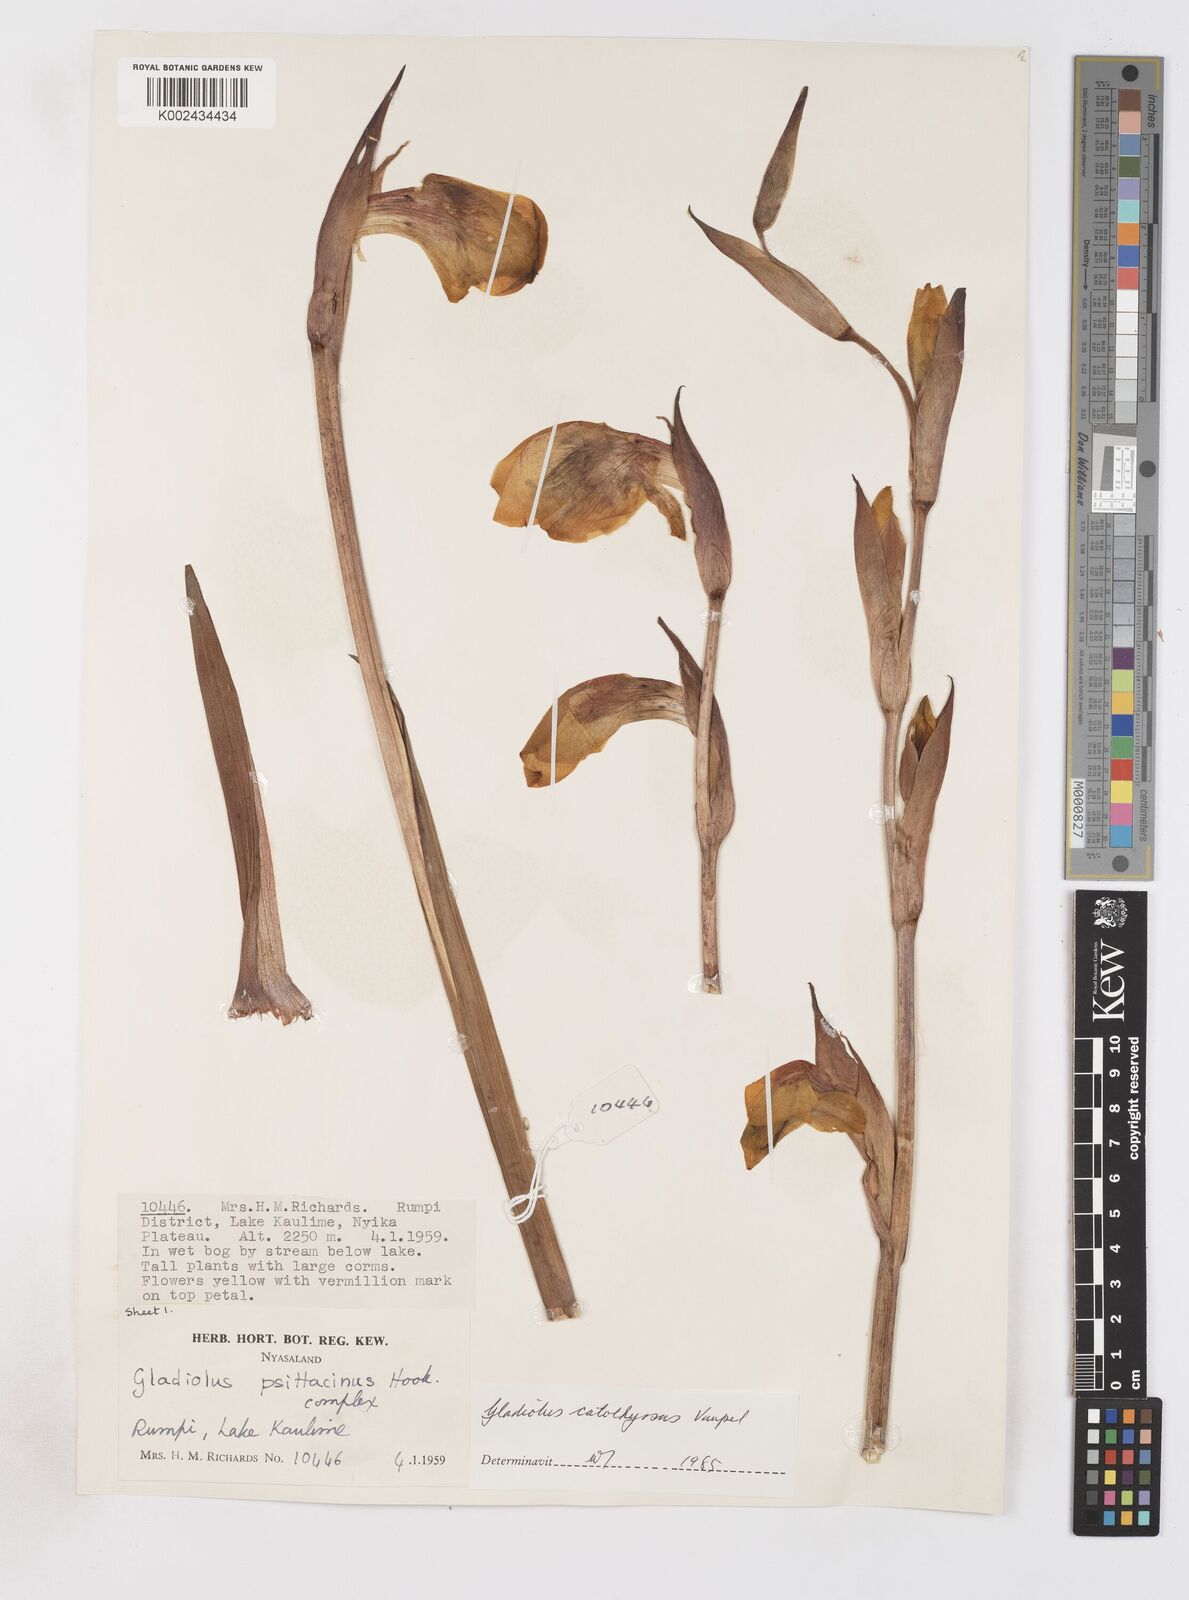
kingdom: Plantae
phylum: Tracheophyta
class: Liliopsida
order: Asparagales
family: Iridaceae
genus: Gladiolus
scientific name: Gladiolus dalenii
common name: Cornflag
